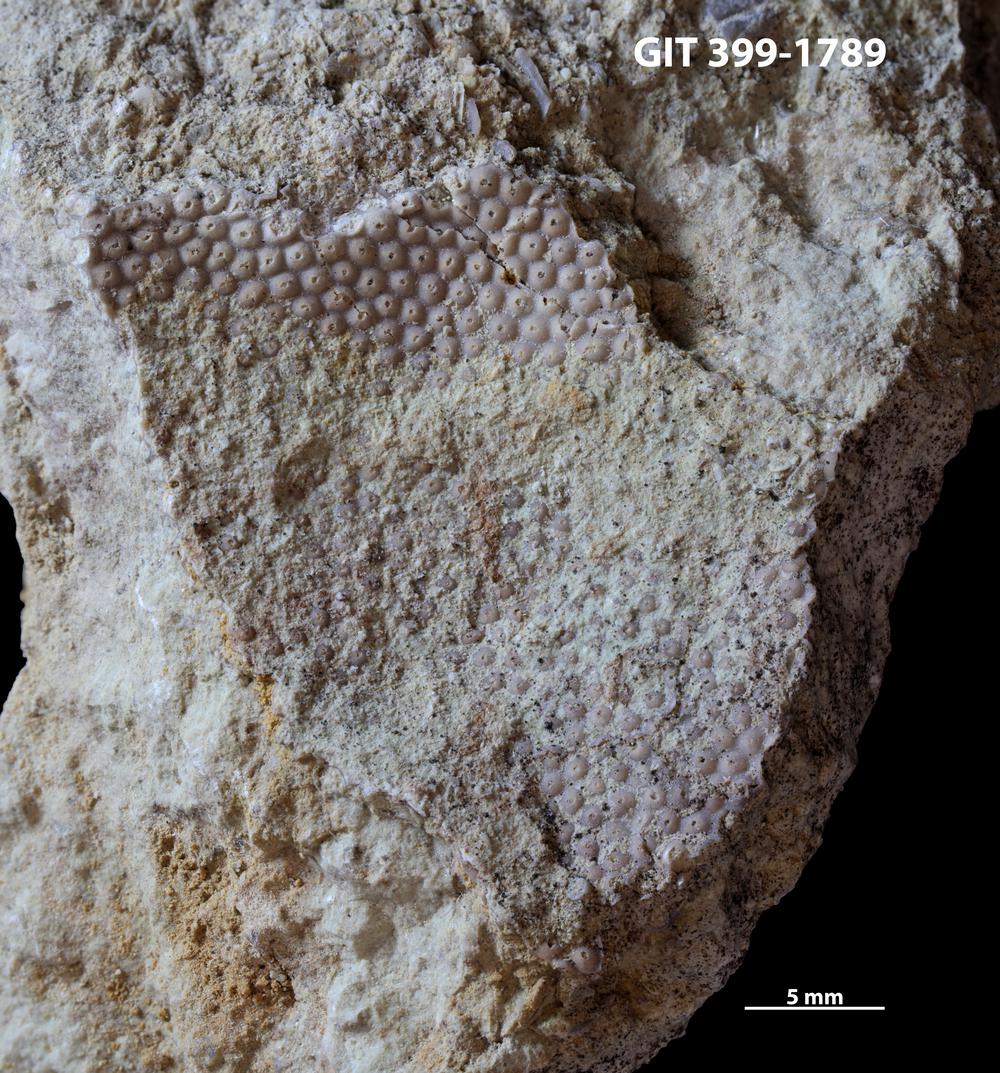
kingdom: Plantae
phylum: Chlorophyta
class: Ulvophyceae
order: Cyclocrinales
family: Cyclocrinaceae
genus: Mastopora
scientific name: Mastopora concava
